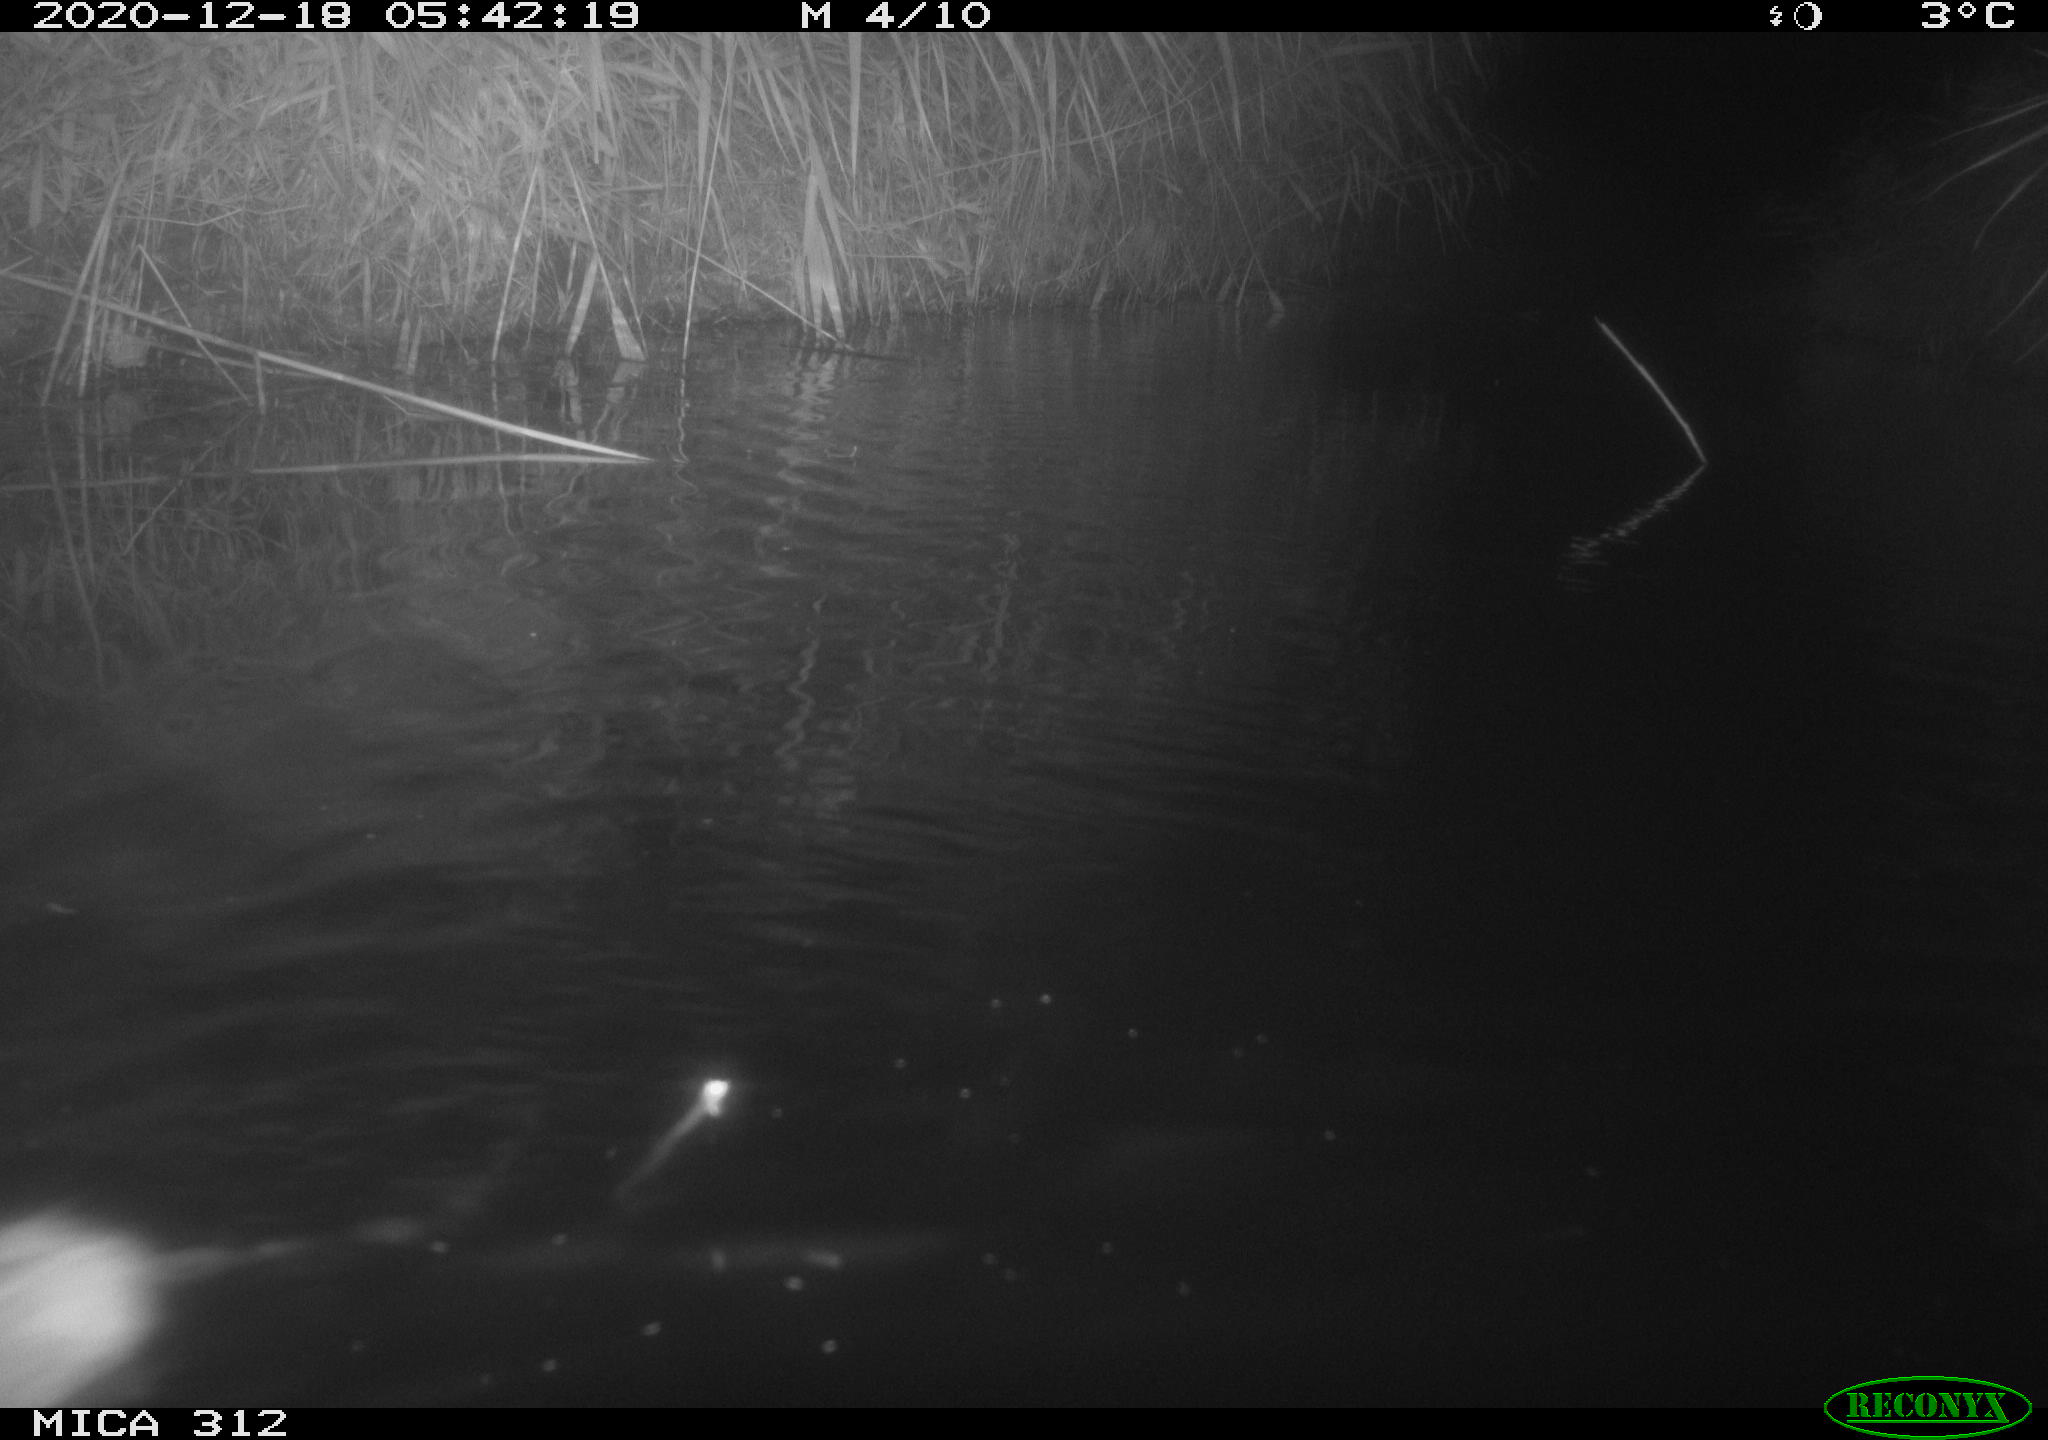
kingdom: Animalia
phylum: Chordata
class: Mammalia
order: Rodentia
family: Muridae
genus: Rattus
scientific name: Rattus norvegicus
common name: Brown rat
